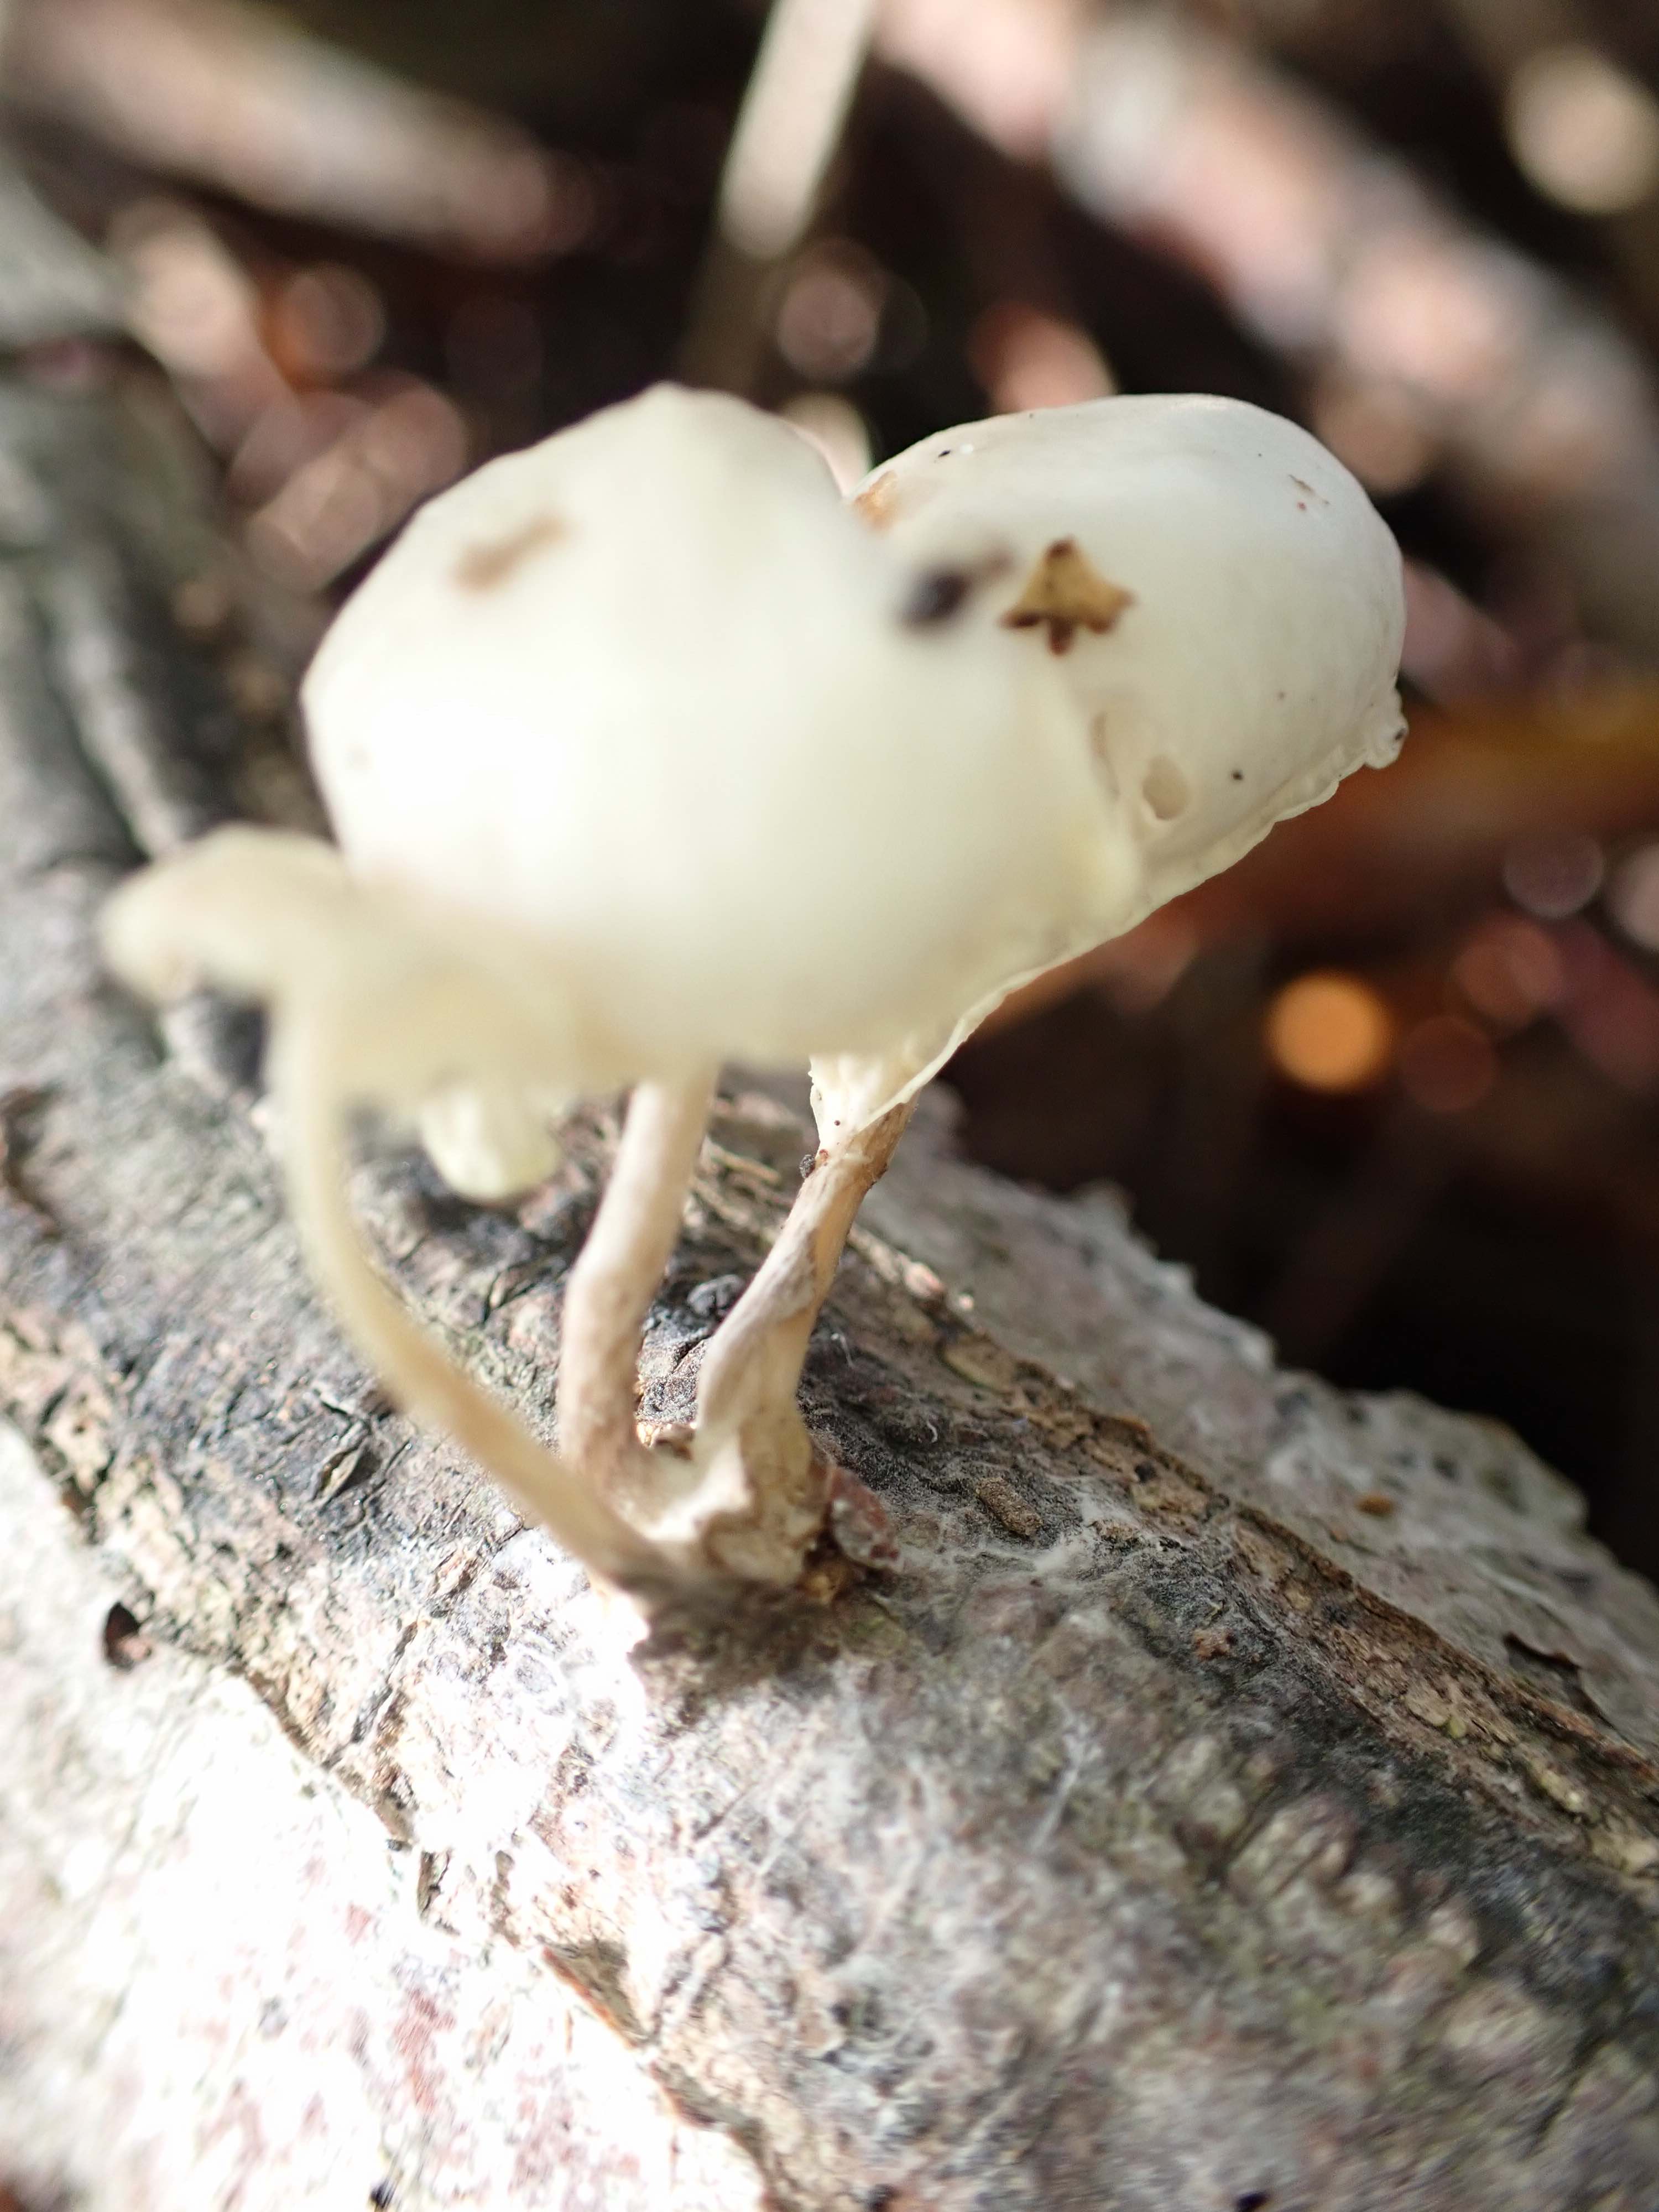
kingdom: Fungi
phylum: Basidiomycota
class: Agaricomycetes
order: Agaricales
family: Physalacriaceae
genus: Mucidula
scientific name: Mucidula mucida
